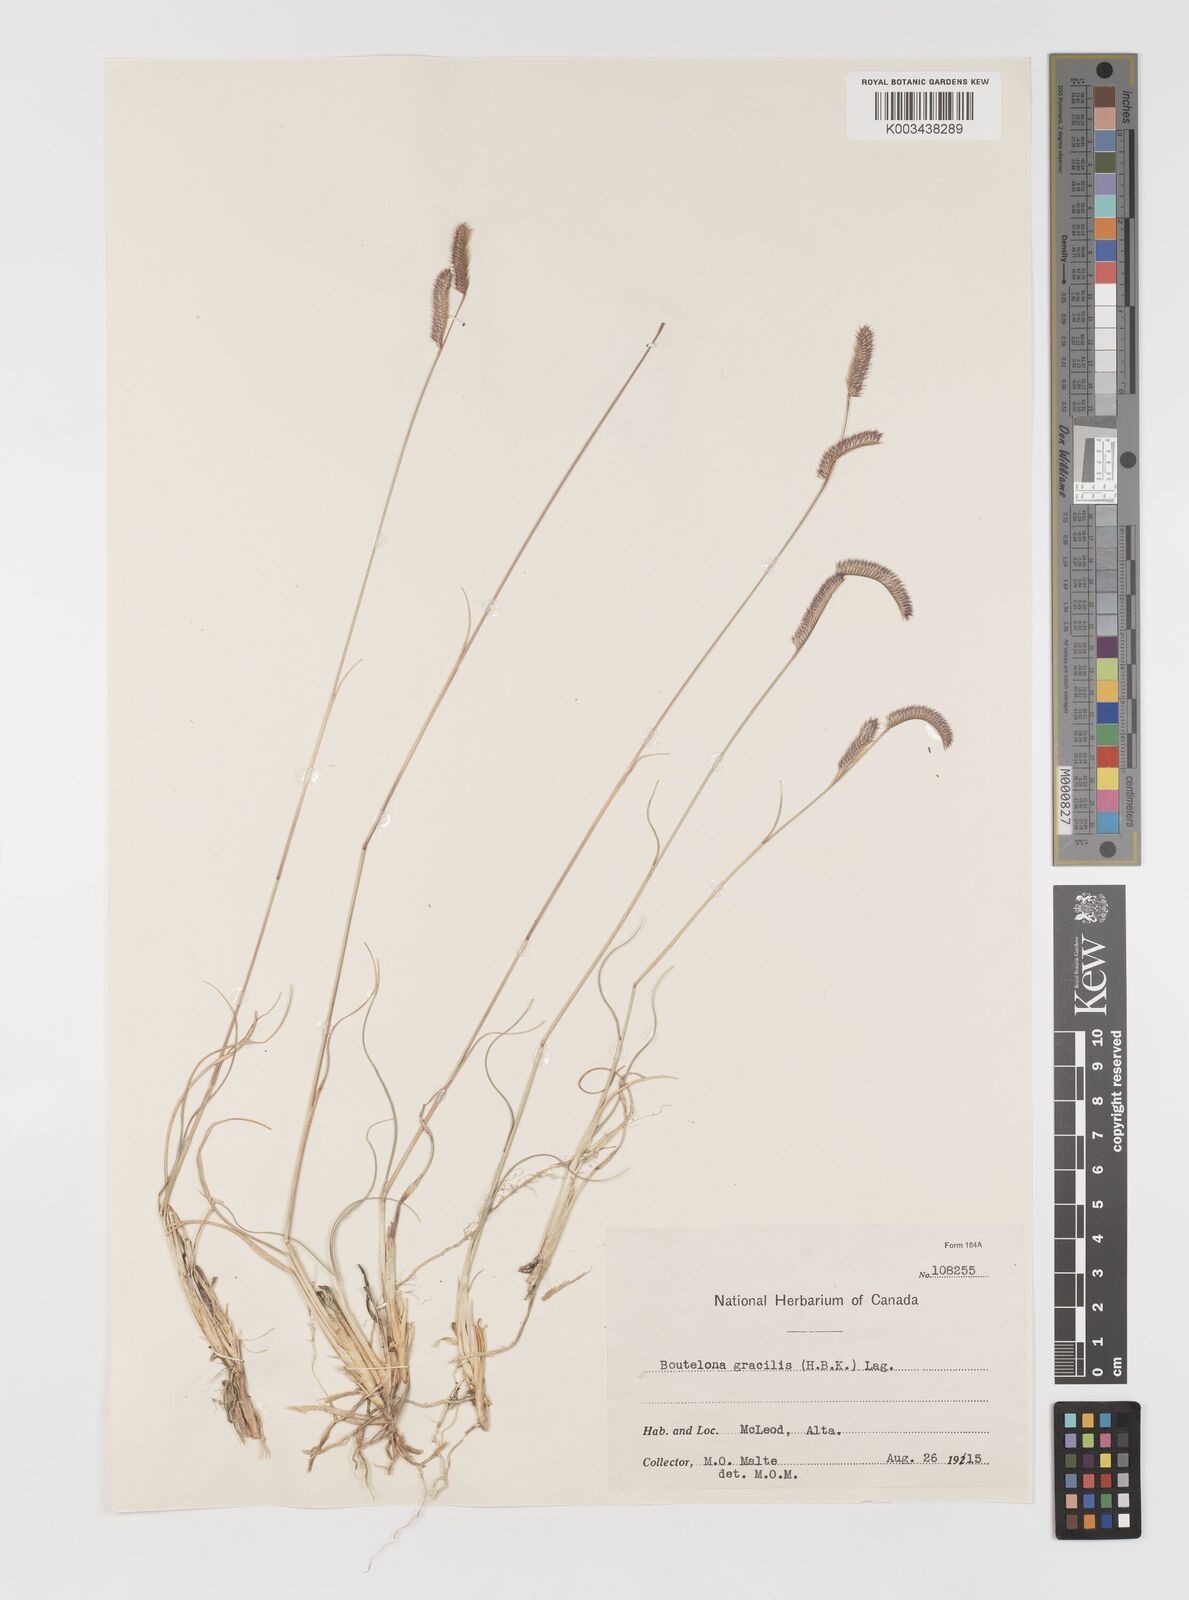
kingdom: Plantae
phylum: Tracheophyta
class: Liliopsida
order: Poales
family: Poaceae
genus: Bouteloua
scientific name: Bouteloua gracilis
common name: Blue grama
